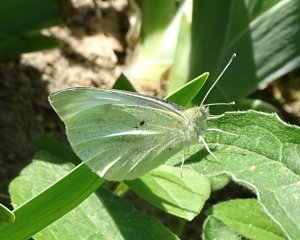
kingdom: Animalia
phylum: Arthropoda
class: Insecta
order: Lepidoptera
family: Pieridae
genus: Pieris
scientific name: Pieris rapae
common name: Cabbage White
